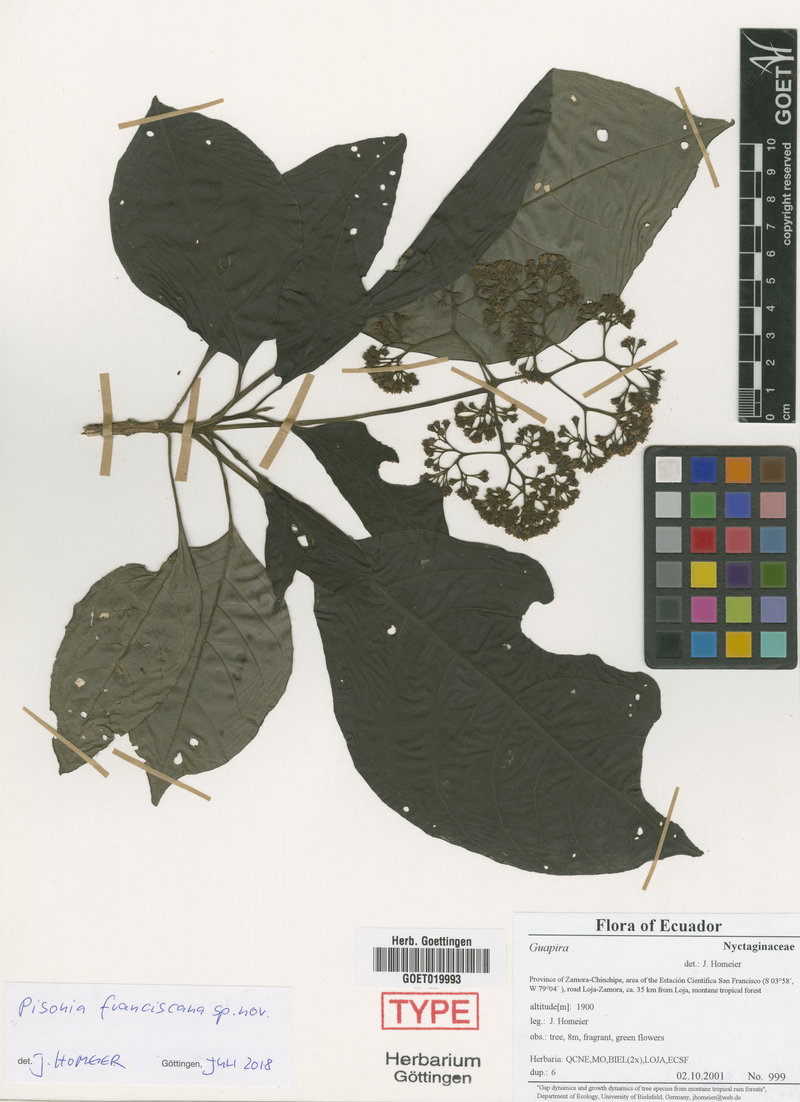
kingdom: Plantae
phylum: Tracheophyta
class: Magnoliopsida
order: Caryophyllales
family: Nyctaginaceae
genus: Pisonia
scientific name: Pisonia
